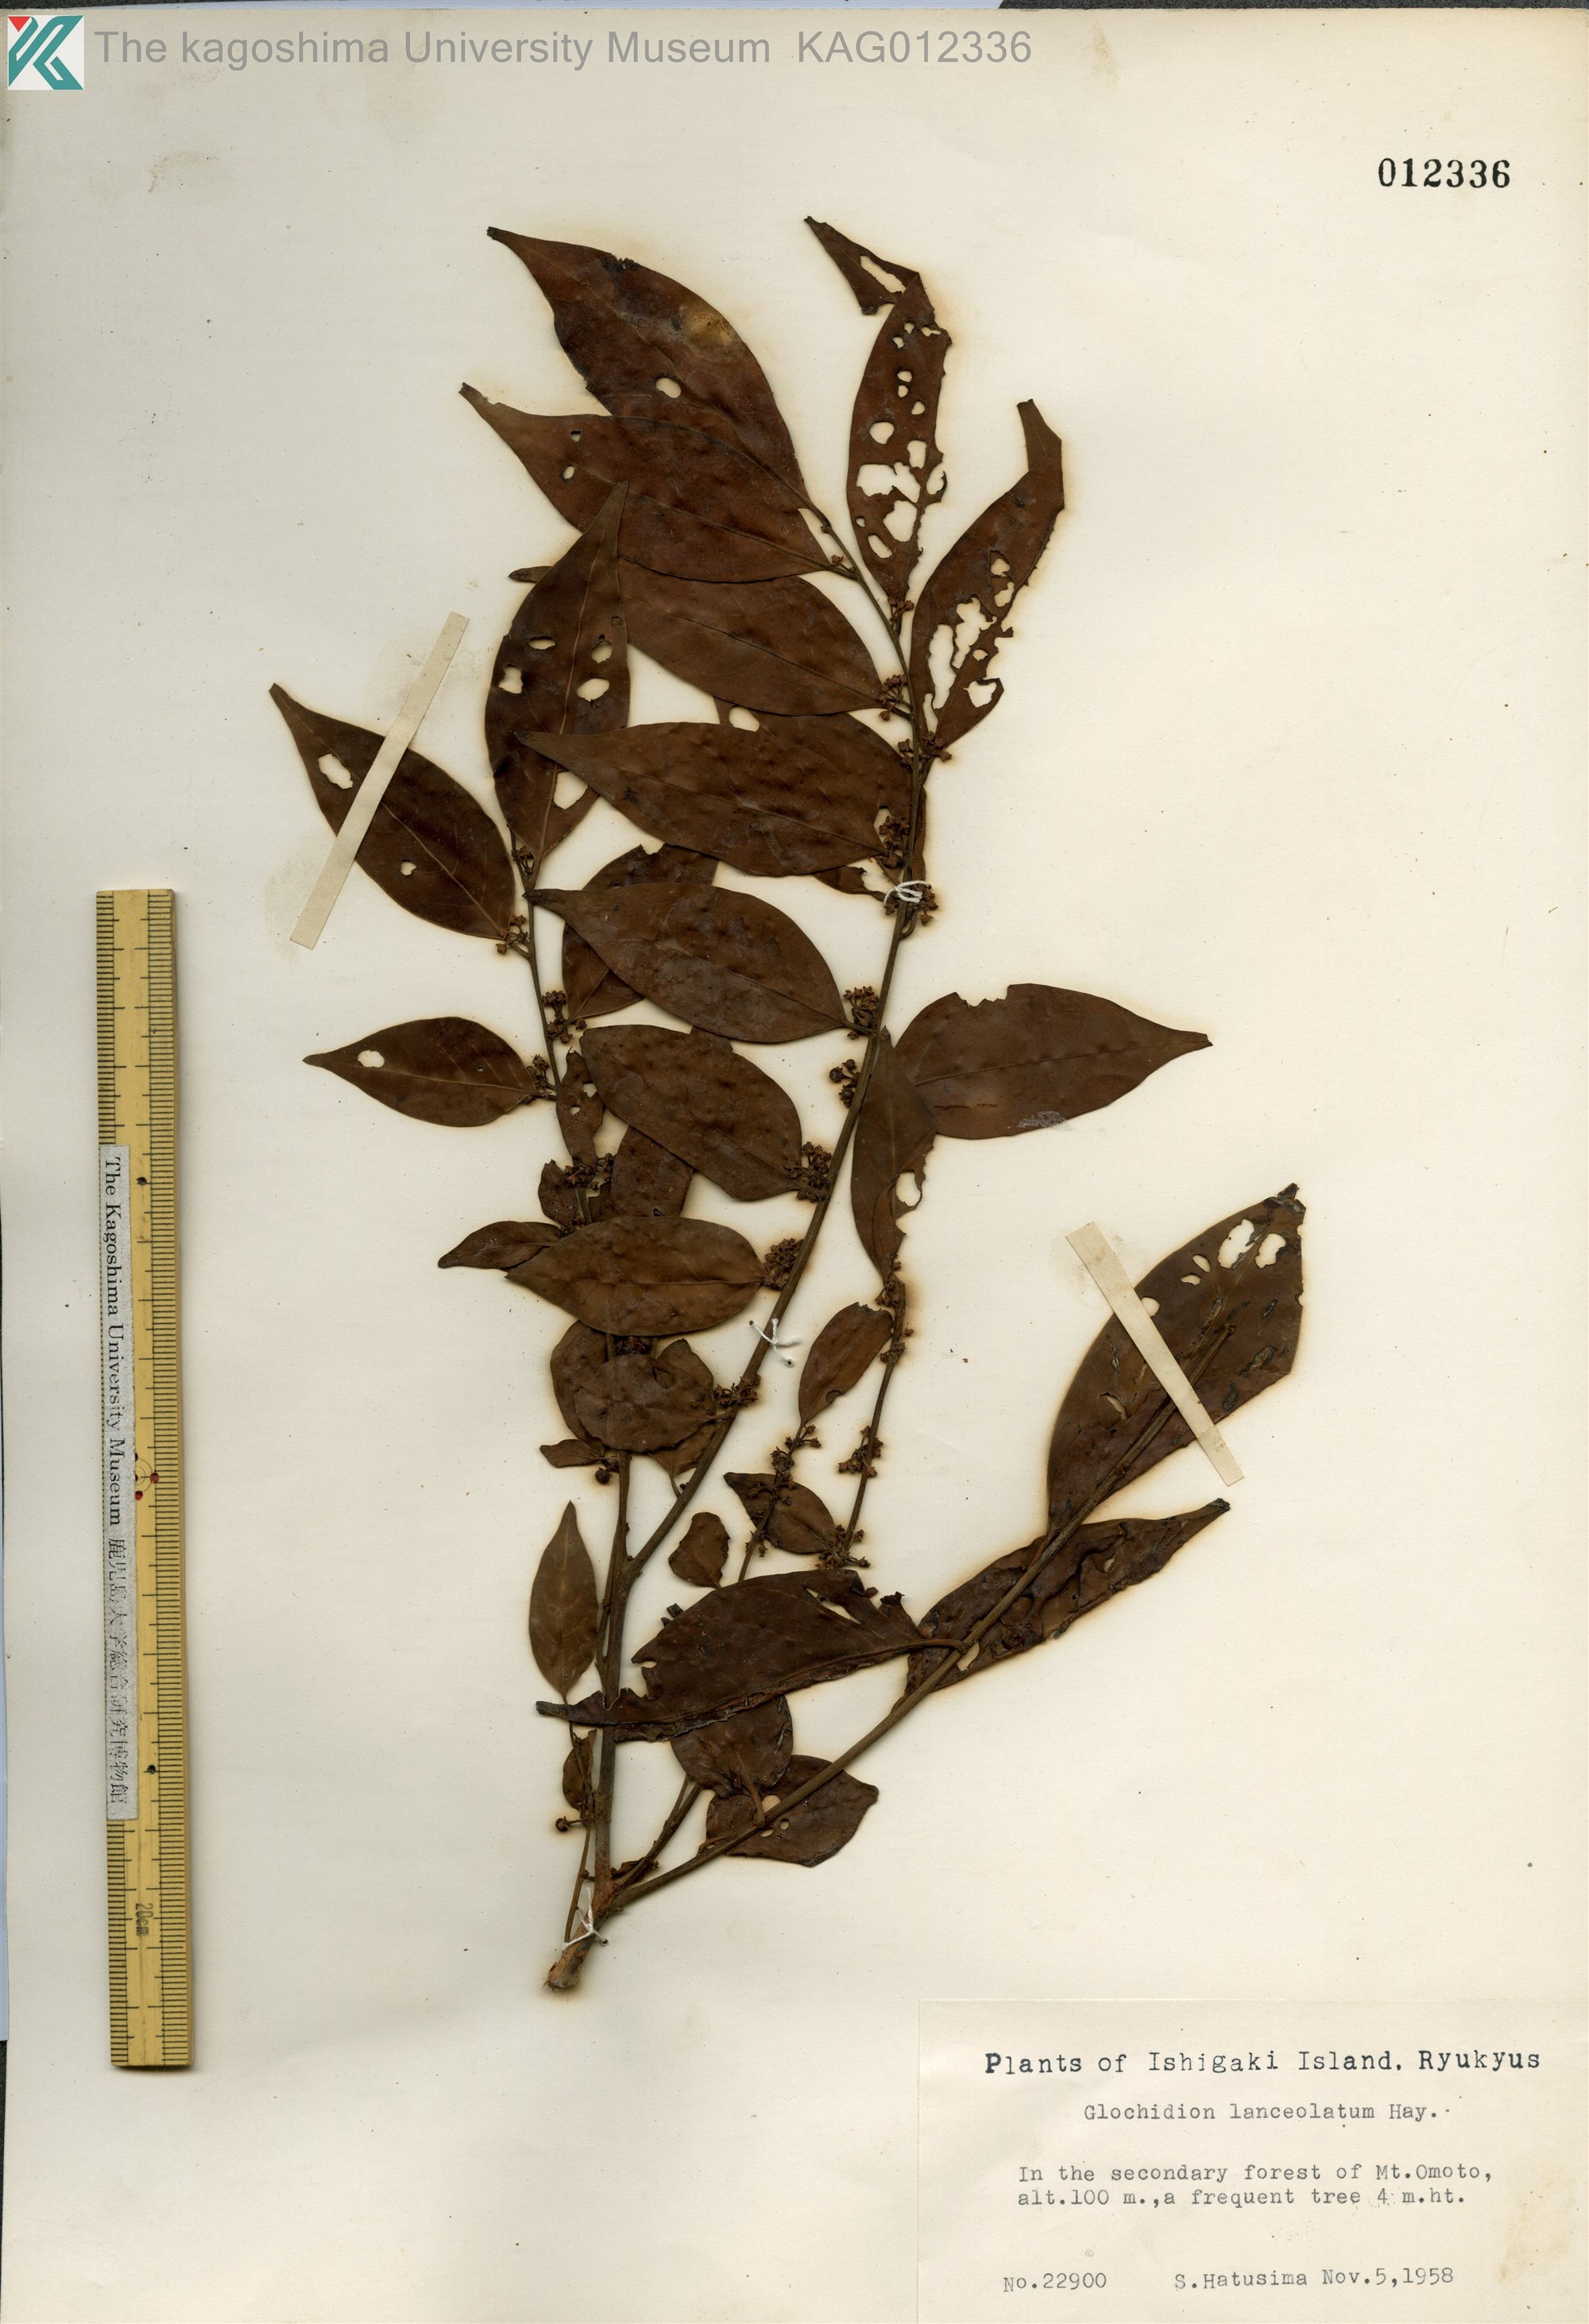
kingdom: Plantae
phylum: Tracheophyta
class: Magnoliopsida
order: Malpighiales
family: Phyllanthaceae
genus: Glochidion
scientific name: Glochidion lanceolatum
